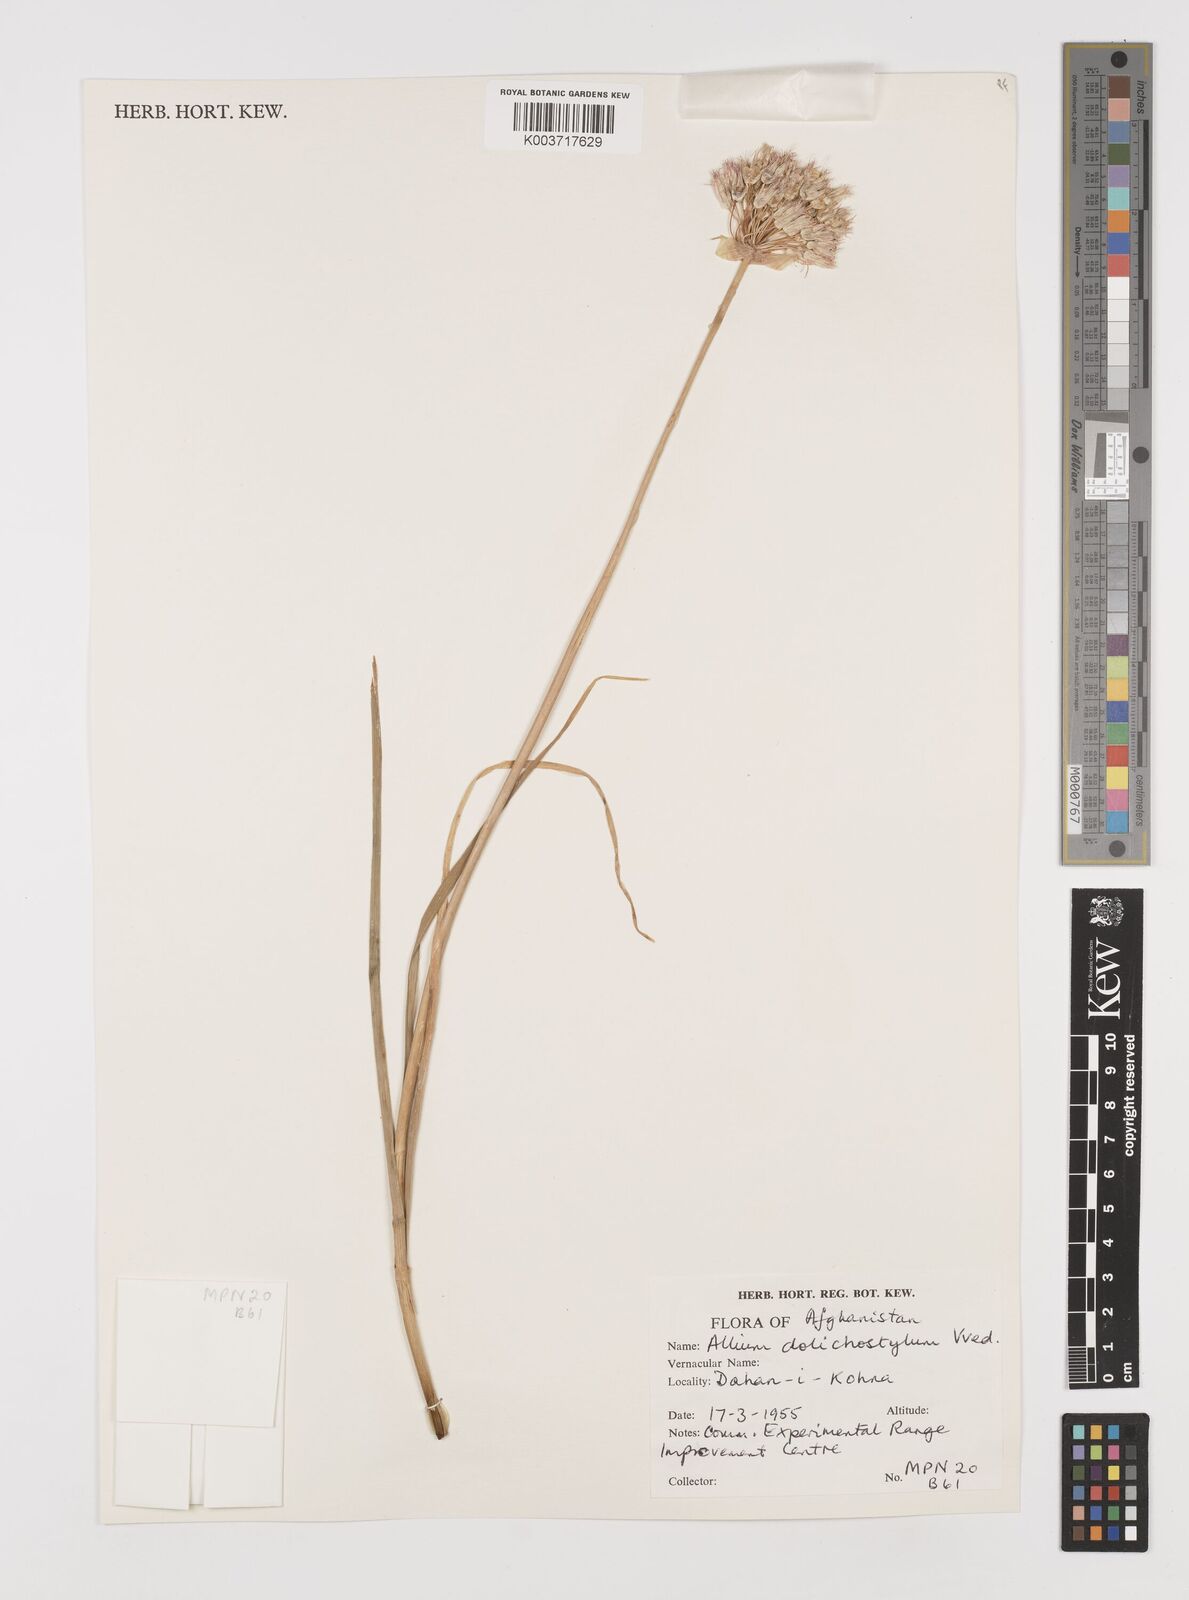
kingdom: Plantae
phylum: Tracheophyta
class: Liliopsida
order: Asparagales
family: Amaryllidaceae
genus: Allium
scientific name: Allium dolichostylum
